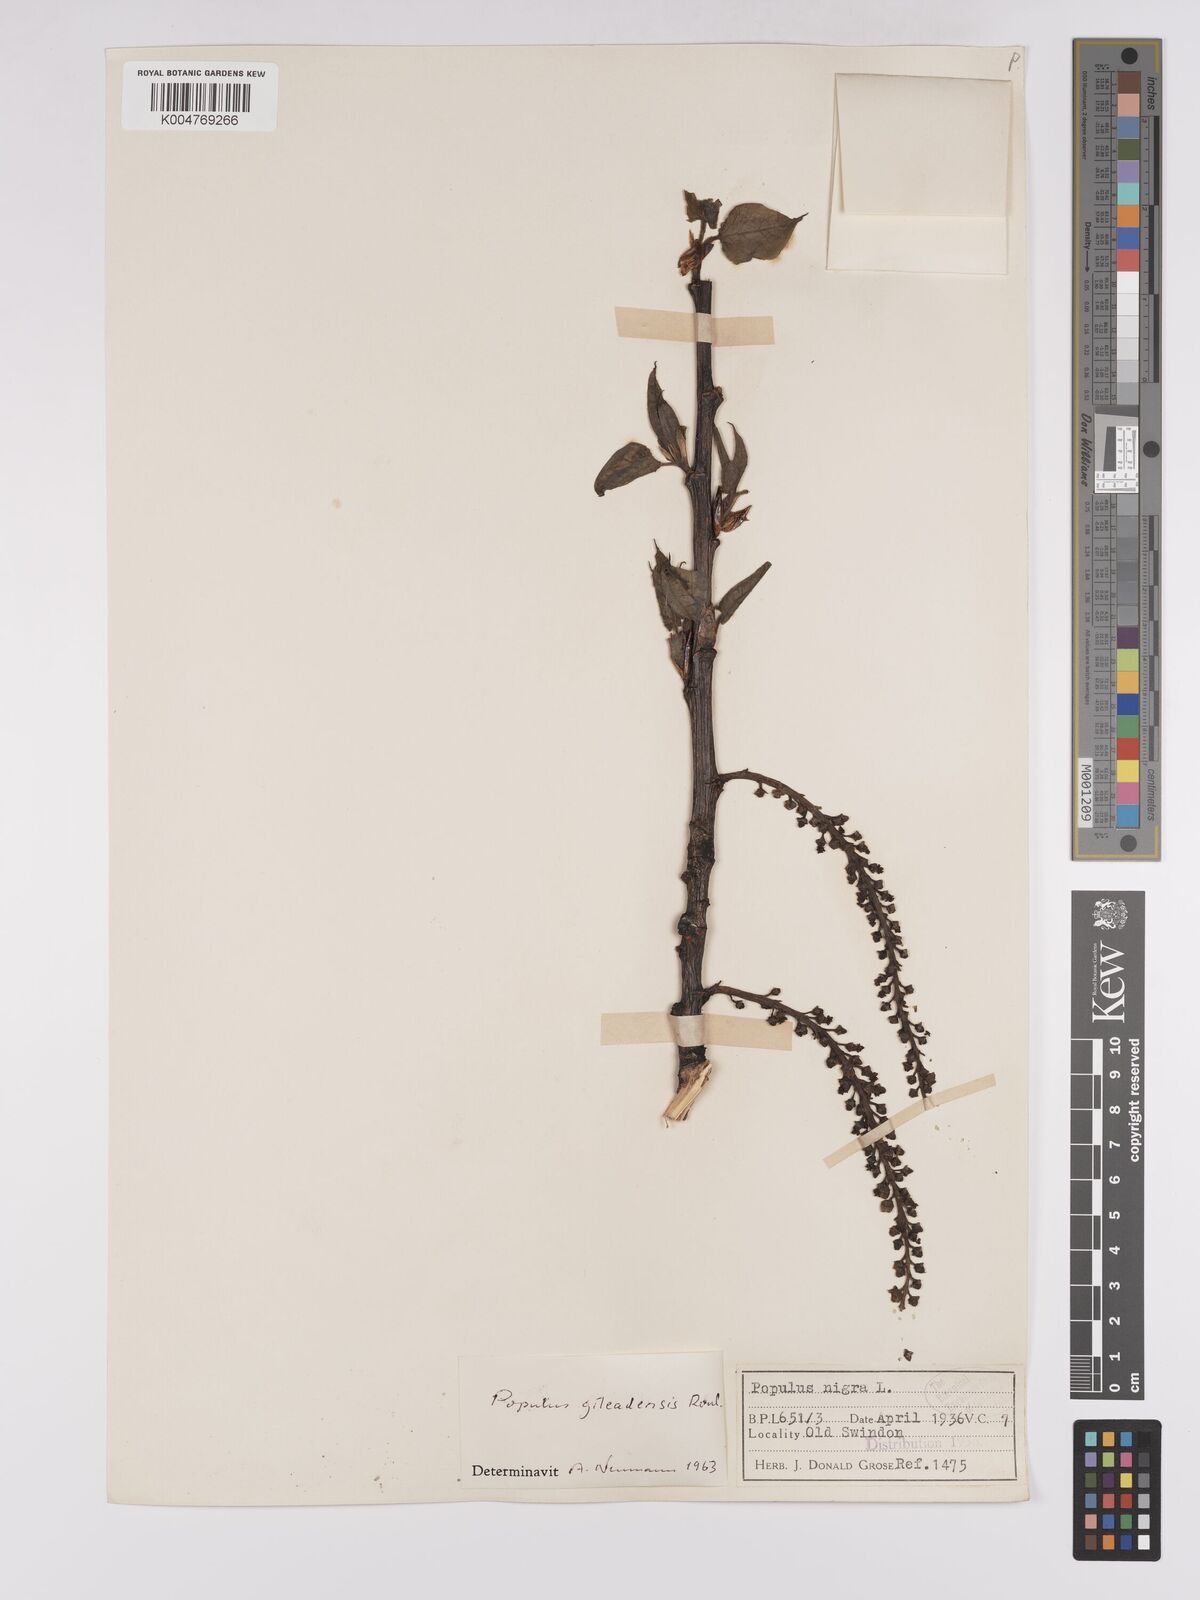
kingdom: Plantae
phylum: Tracheophyta
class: Magnoliopsida
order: Malpighiales
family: Salicaceae
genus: Populus
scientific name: Populus jackii
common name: Balm-of-gilead
